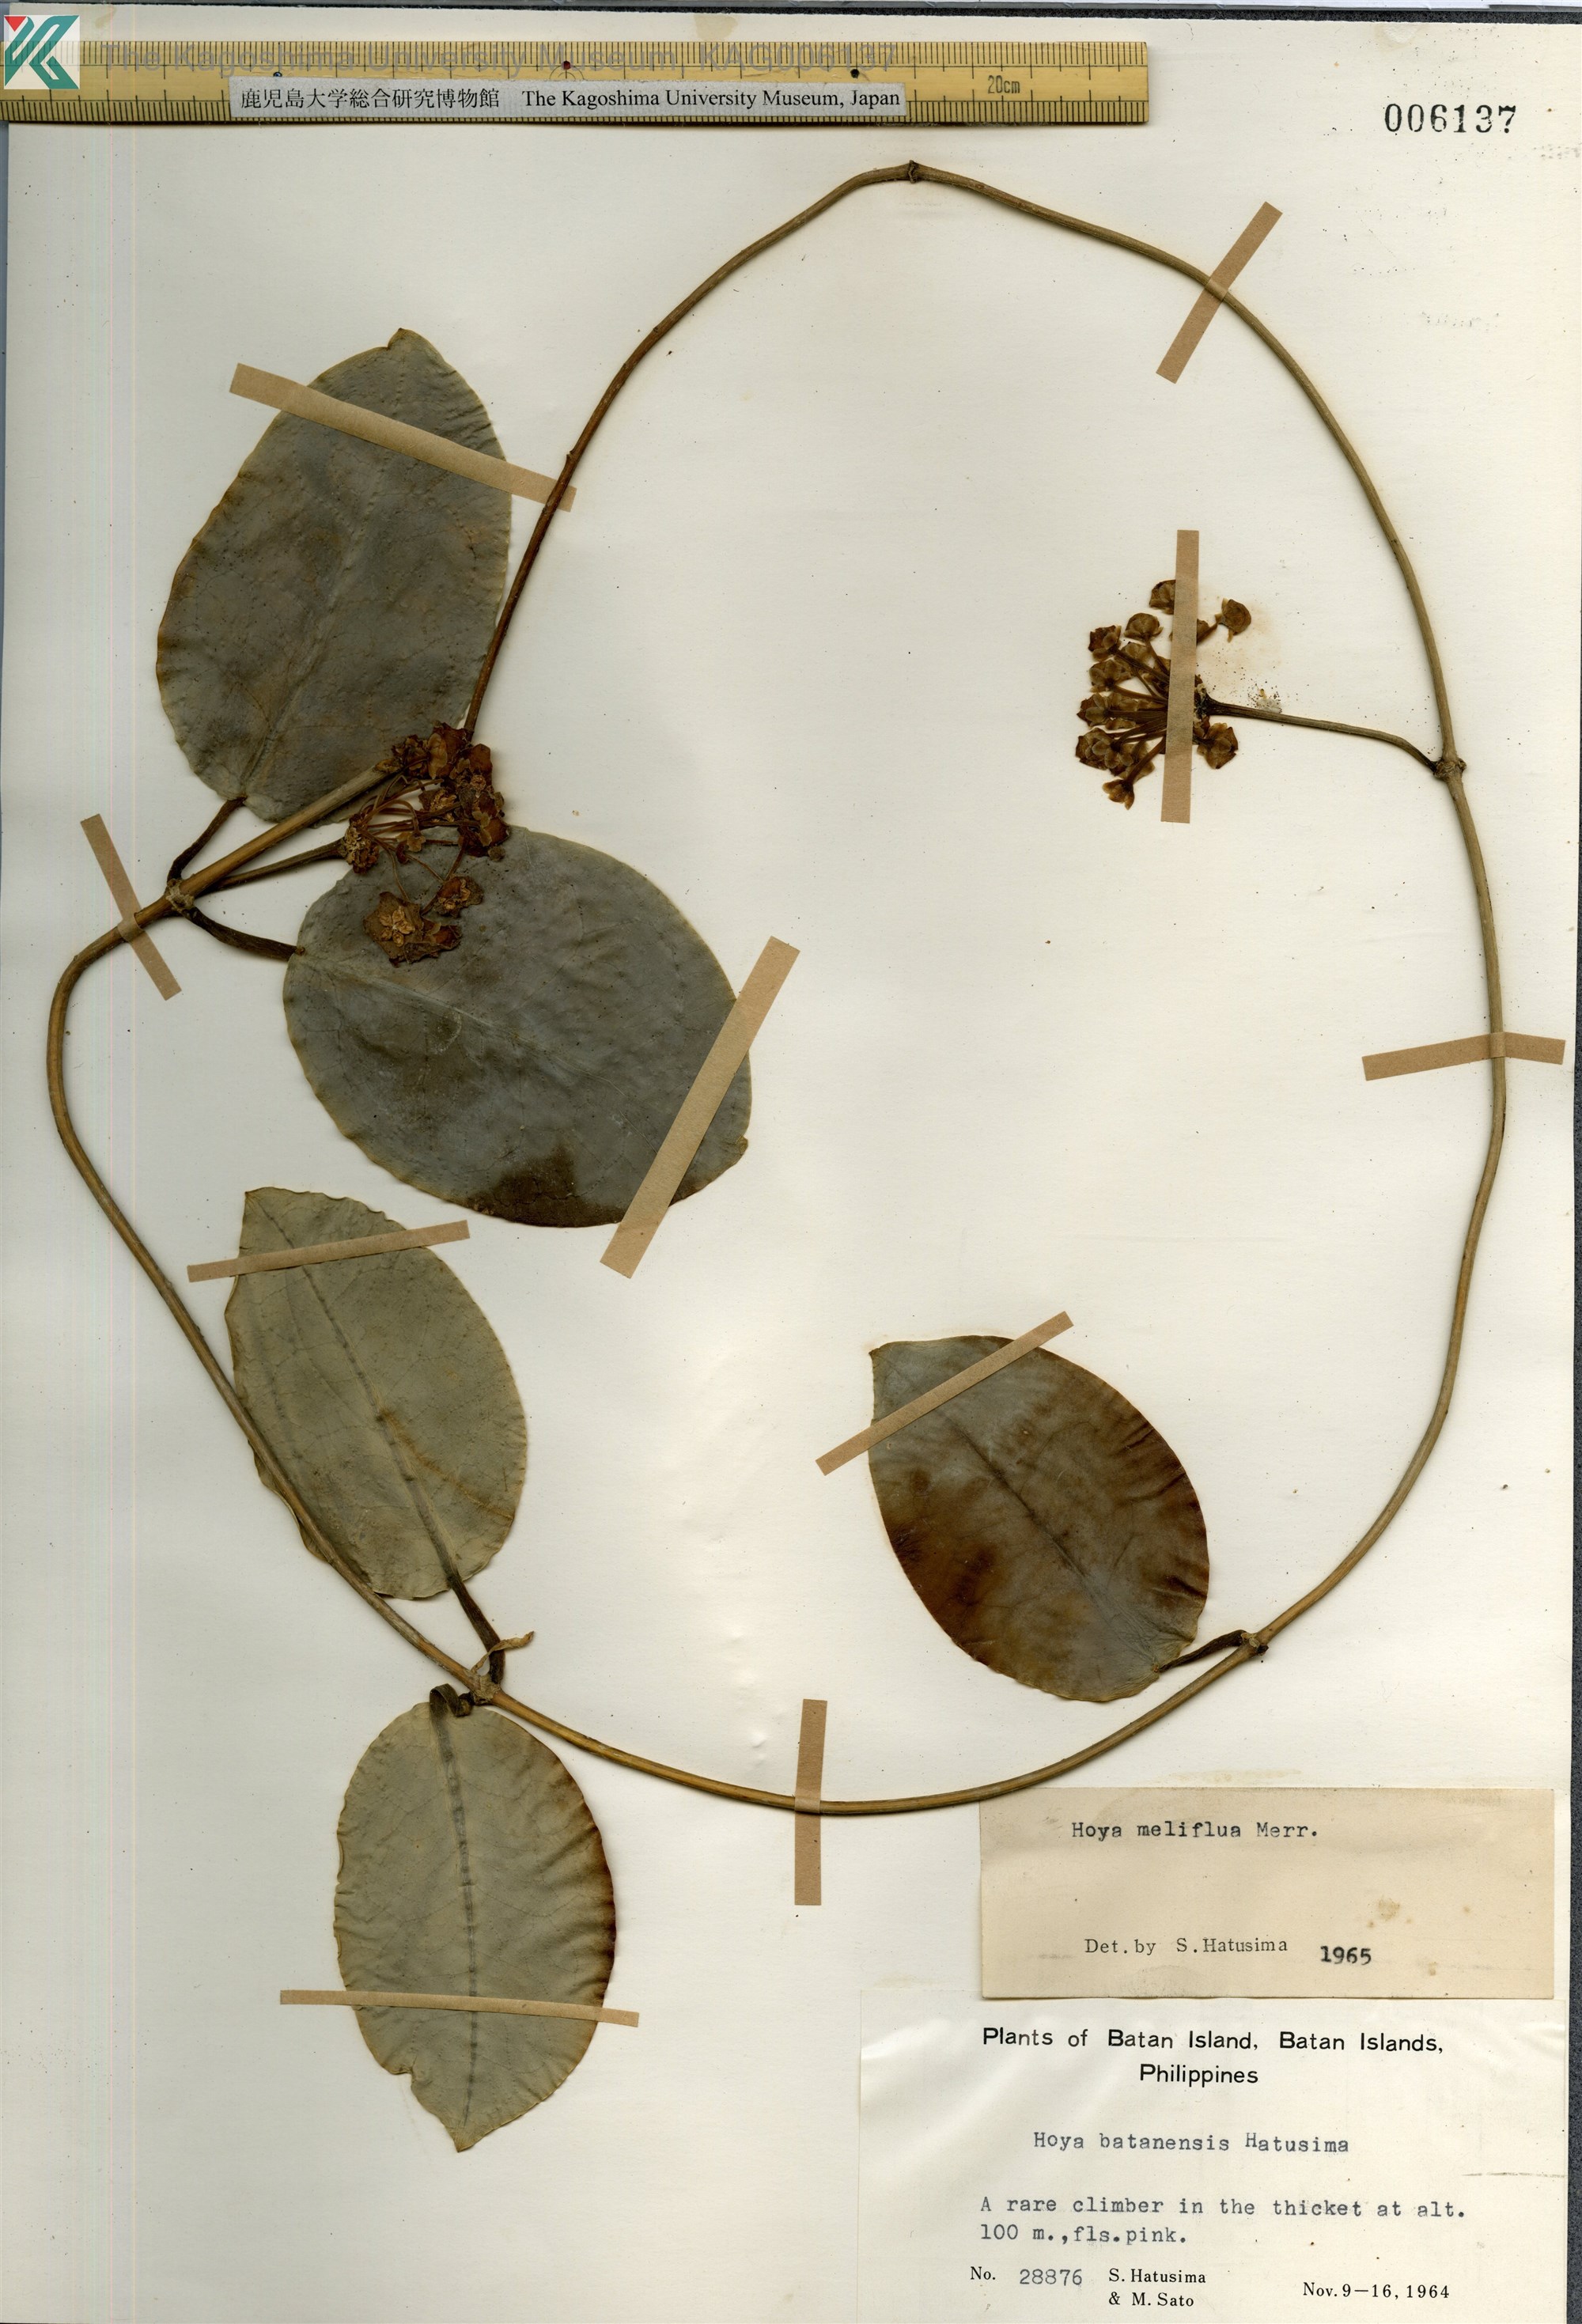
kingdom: Plantae
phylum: Tracheophyta
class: Magnoliopsida
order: Gentianales
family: Apocynaceae
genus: Hoya
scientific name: Hoya
